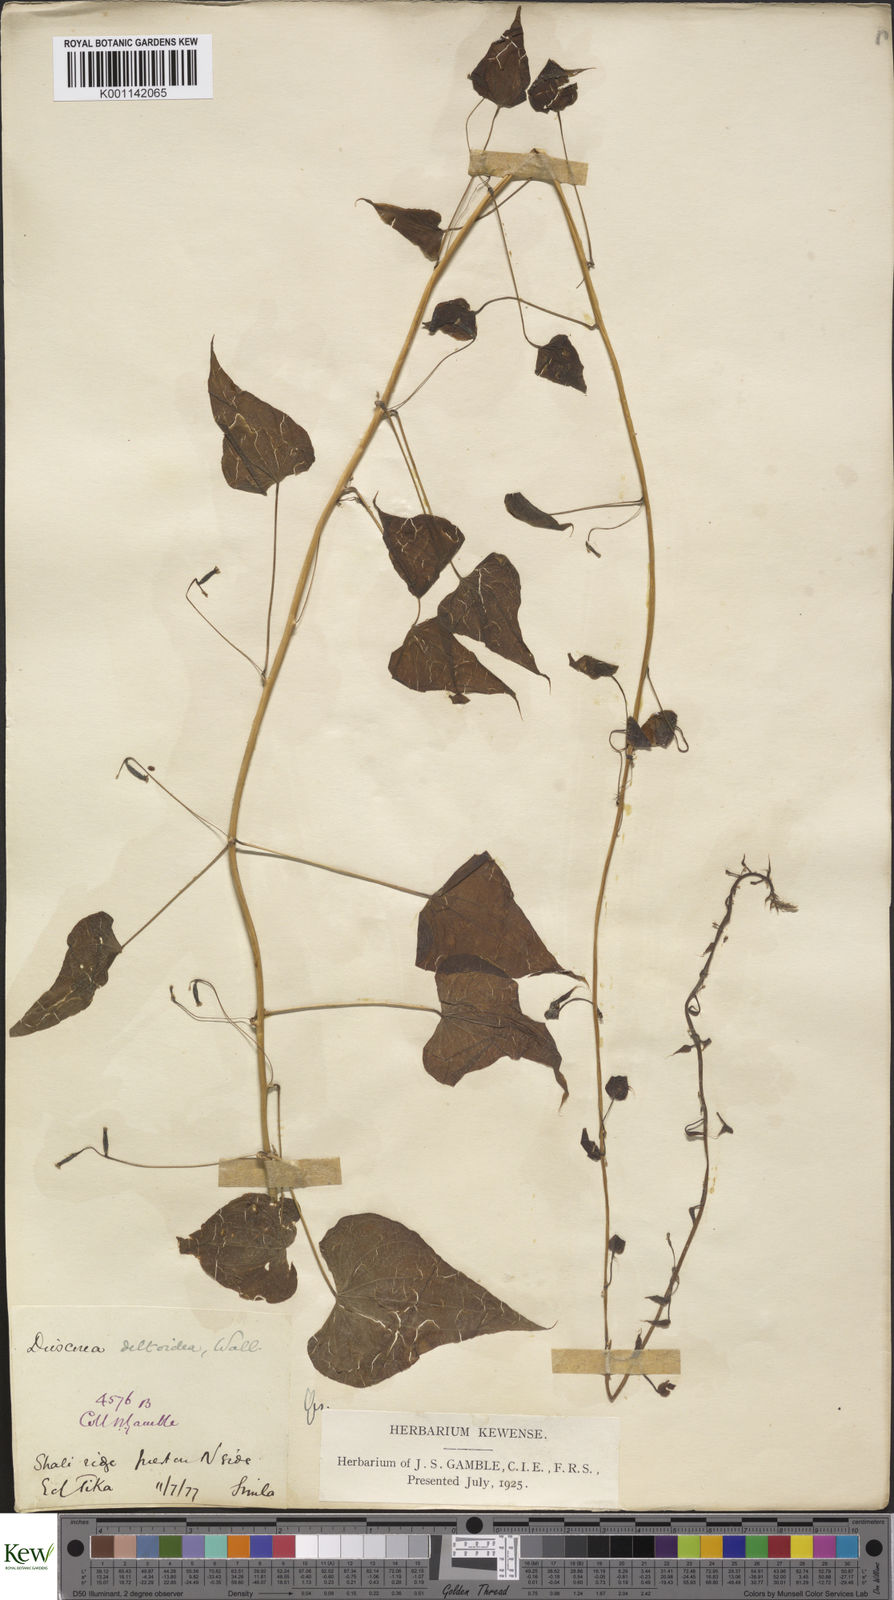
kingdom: Plantae
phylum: Tracheophyta
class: Liliopsida
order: Dioscoreales
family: Dioscoreaceae
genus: Dioscorea
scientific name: Dioscorea deltoidea
